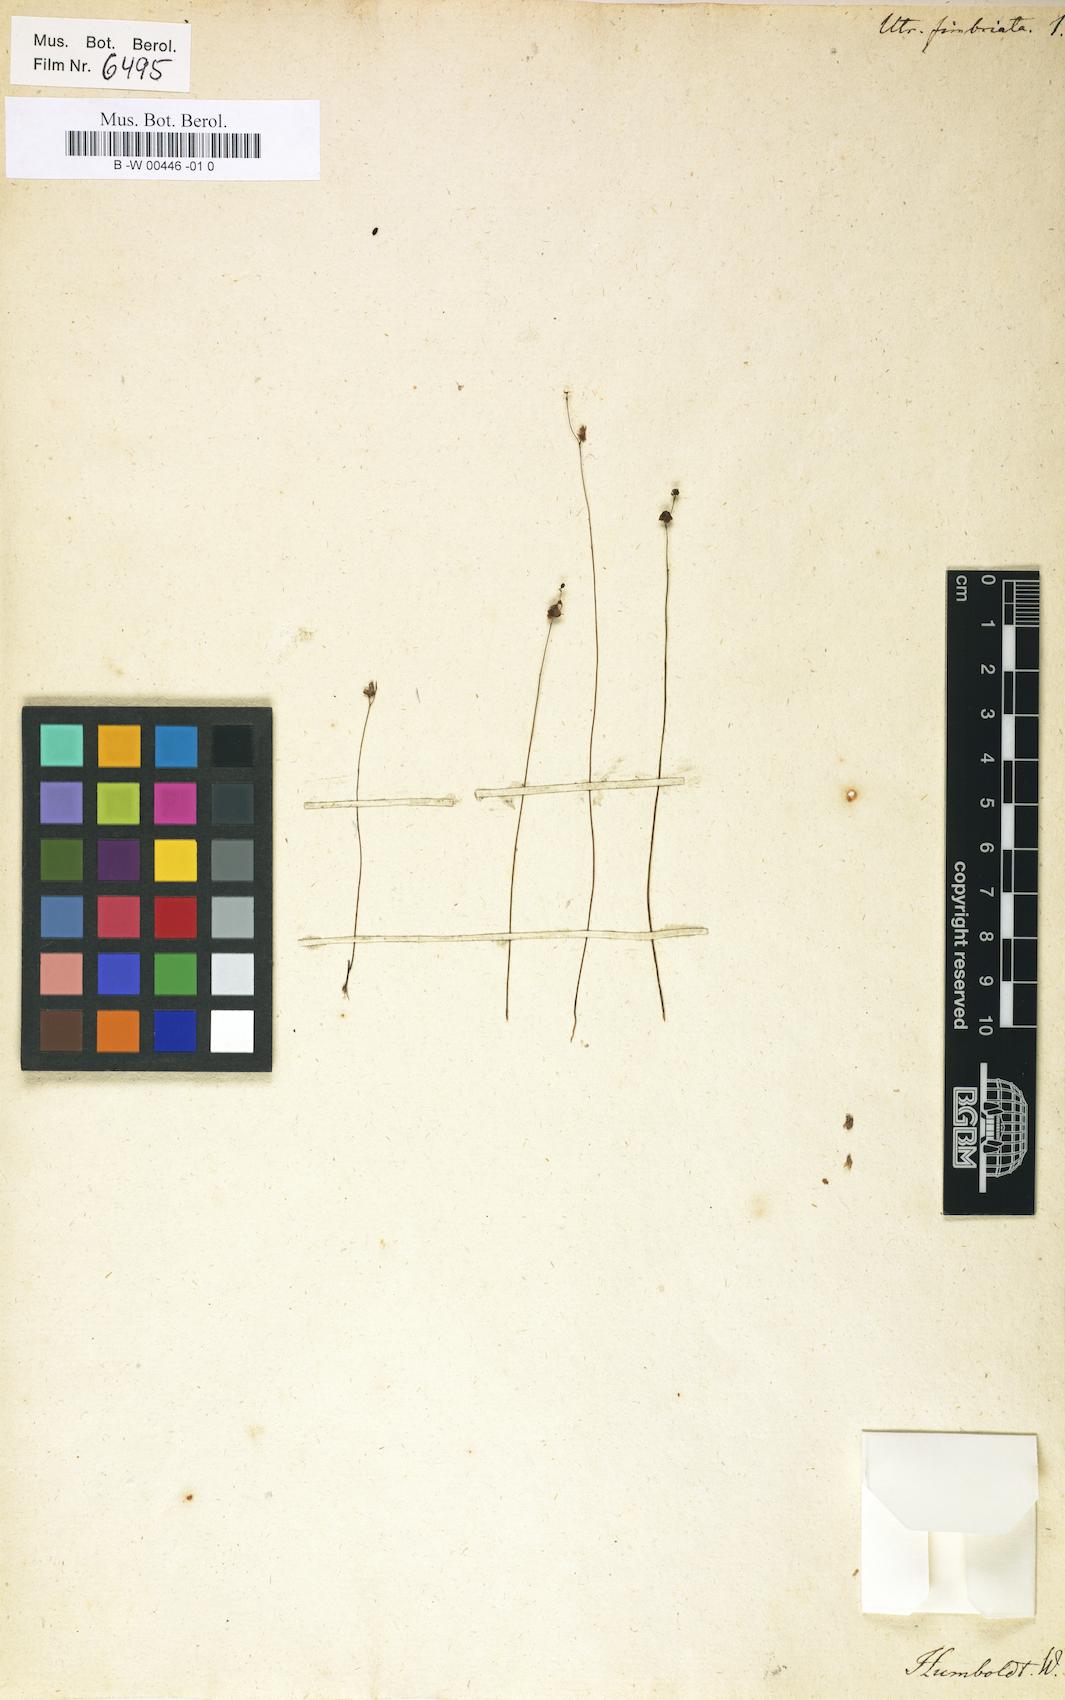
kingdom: Plantae
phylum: Tracheophyta
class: Magnoliopsida
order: Lamiales
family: Lentibulariaceae
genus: Utricularia
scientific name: Utricularia laciniata
